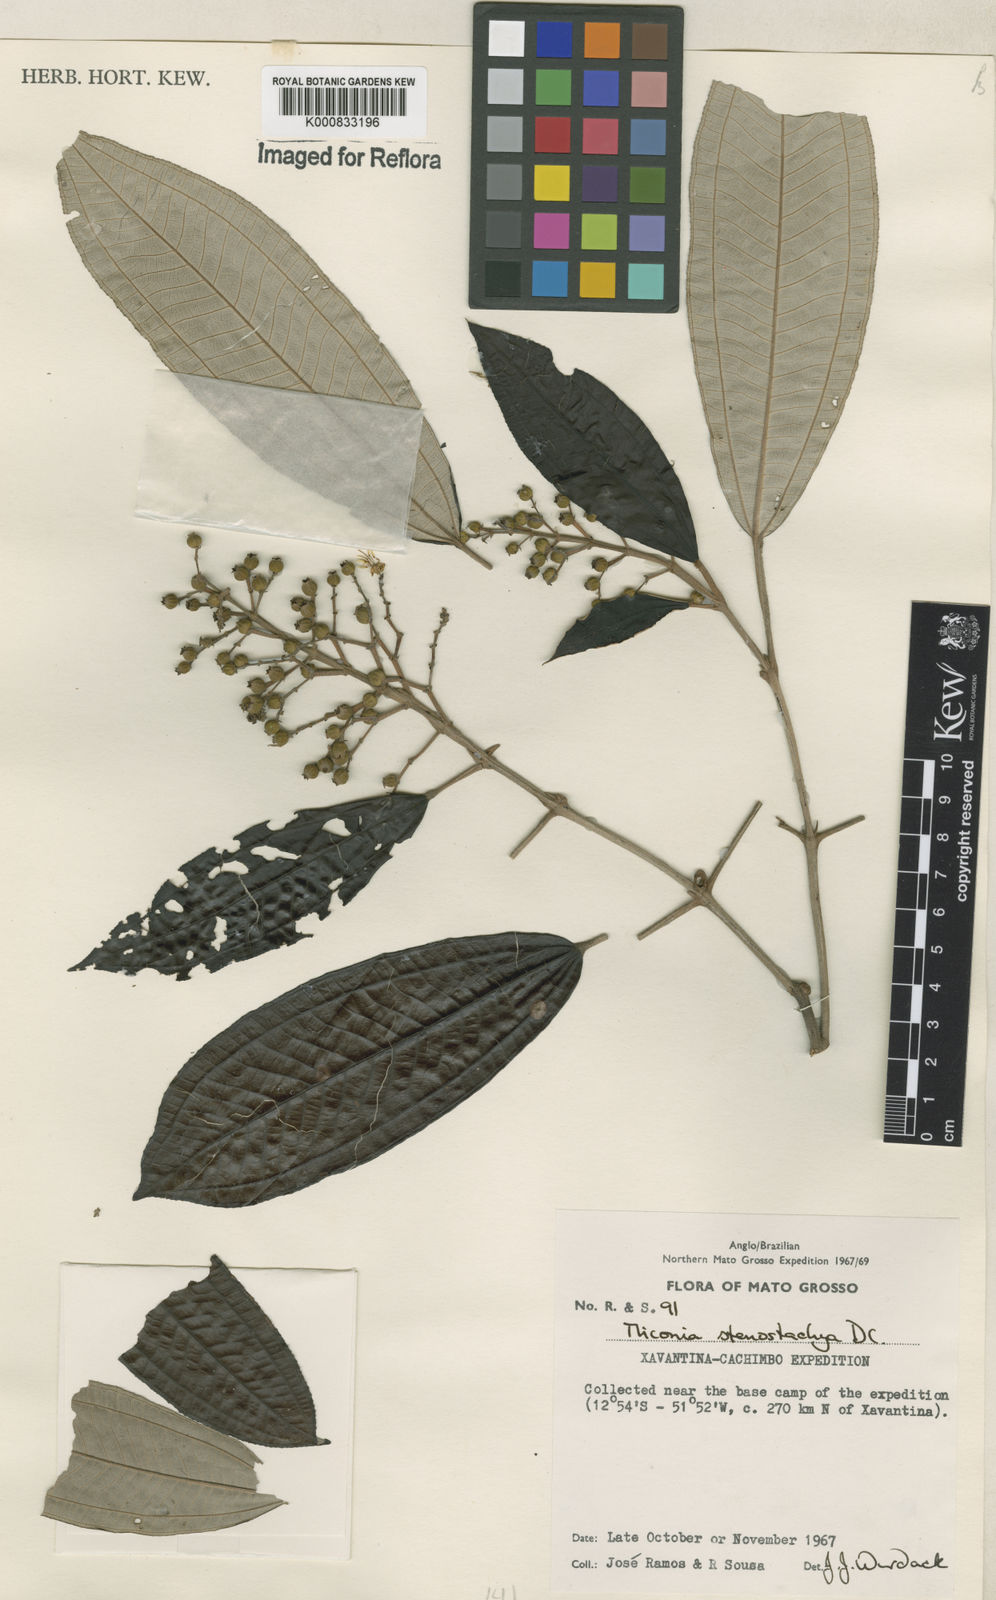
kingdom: Plantae
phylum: Tracheophyta
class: Magnoliopsida
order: Myrtales
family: Melastomataceae
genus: Miconia
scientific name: Miconia stenostachya
